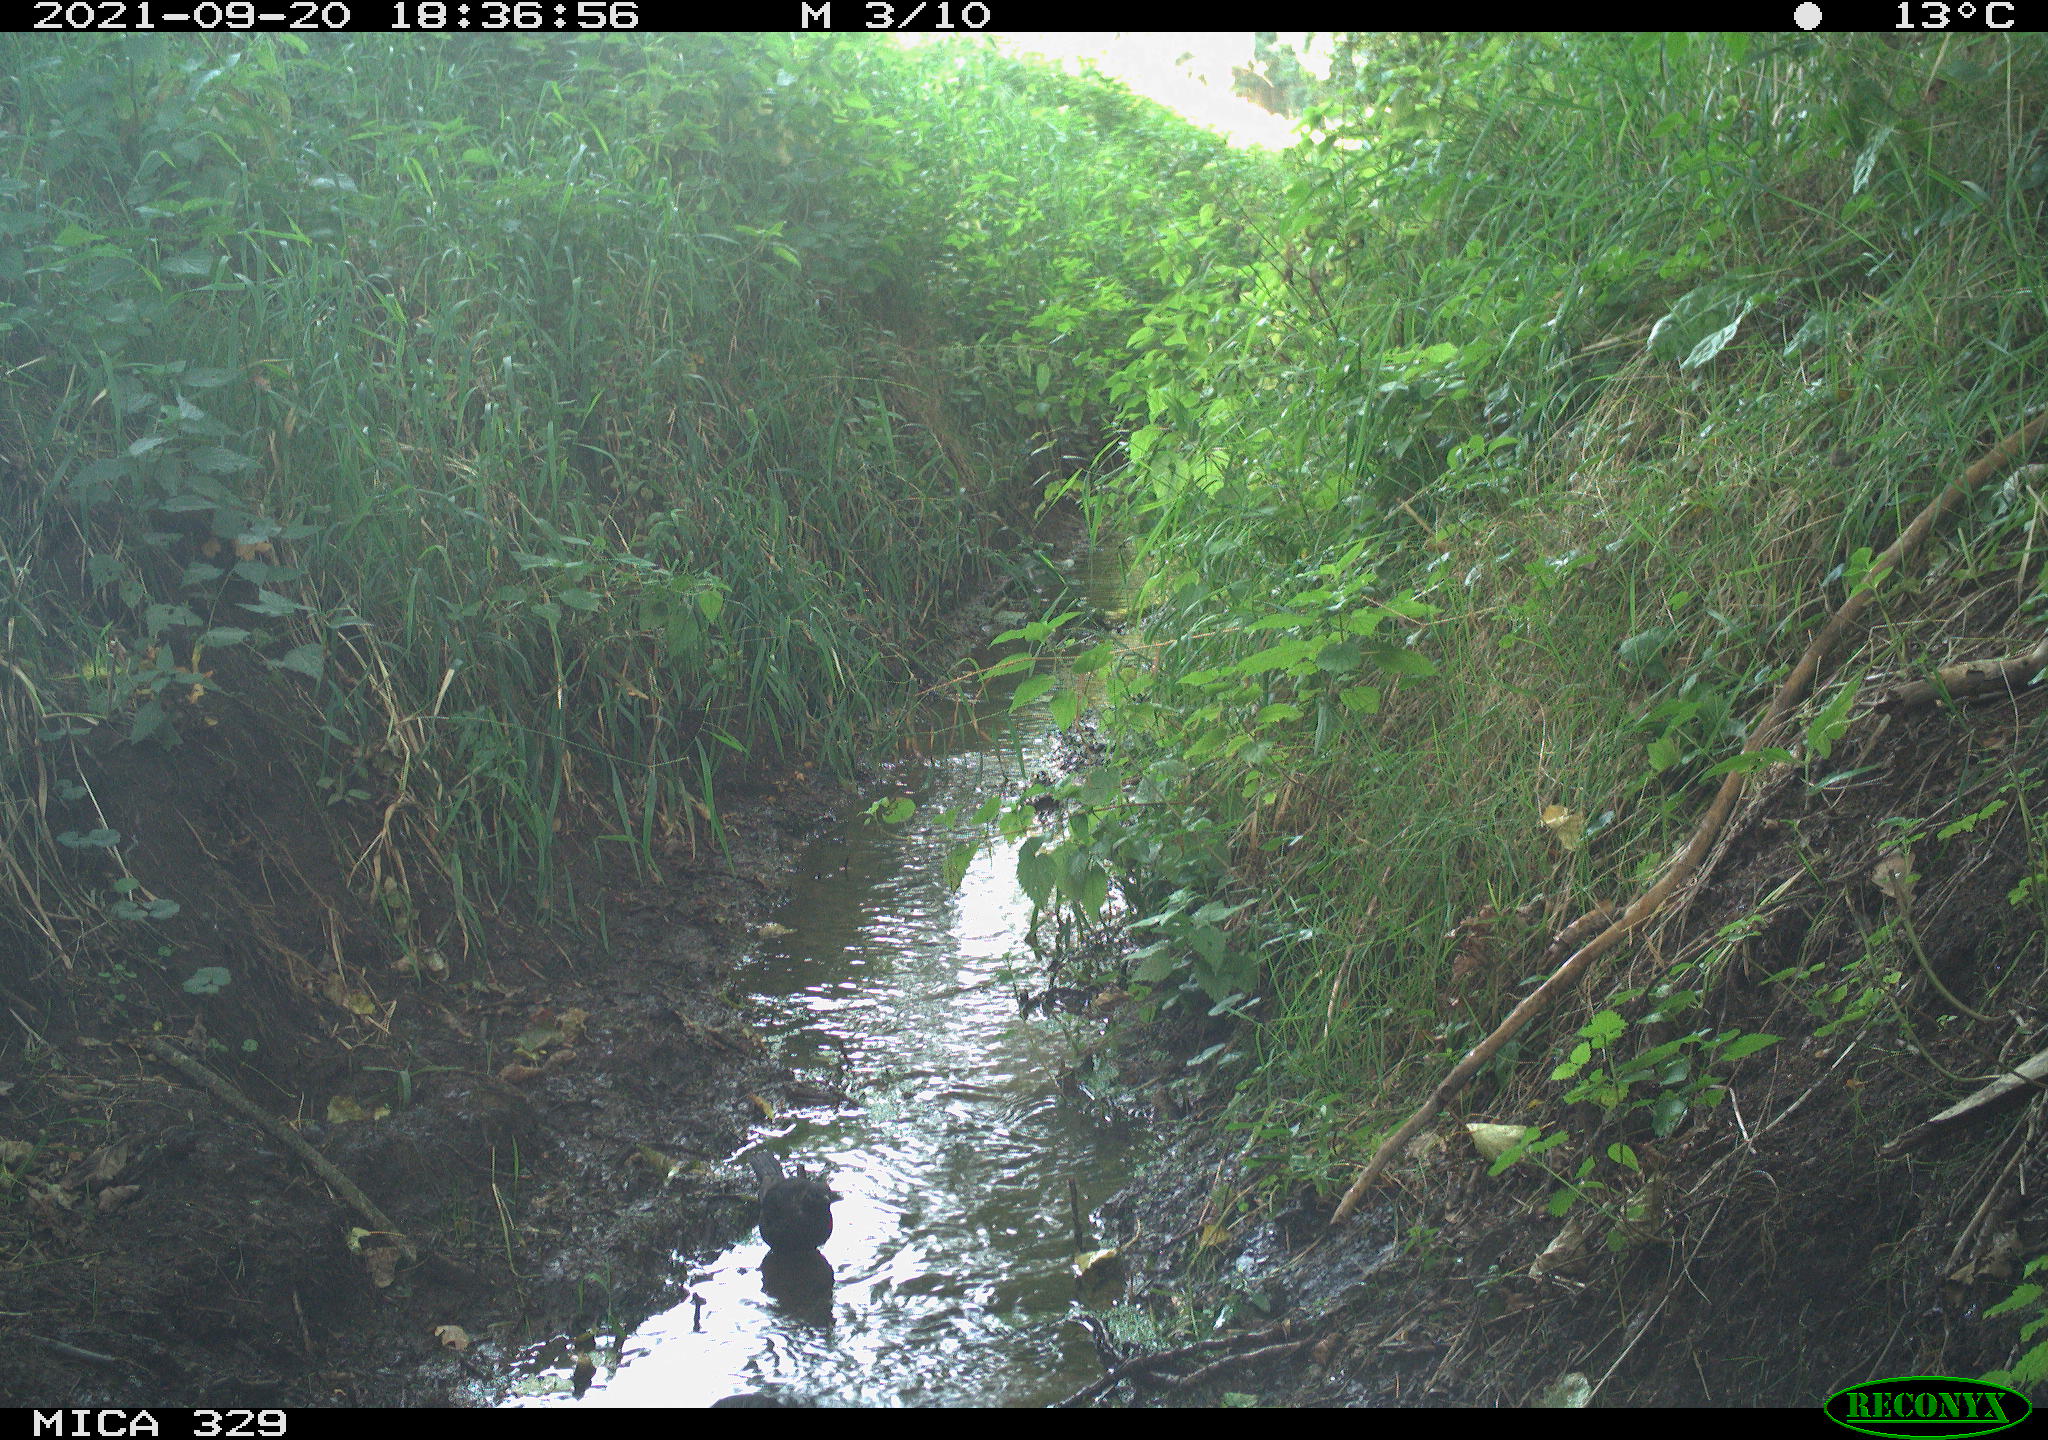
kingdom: Animalia
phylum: Chordata
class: Aves
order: Passeriformes
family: Turdidae
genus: Turdus
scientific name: Turdus merula
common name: Common blackbird
